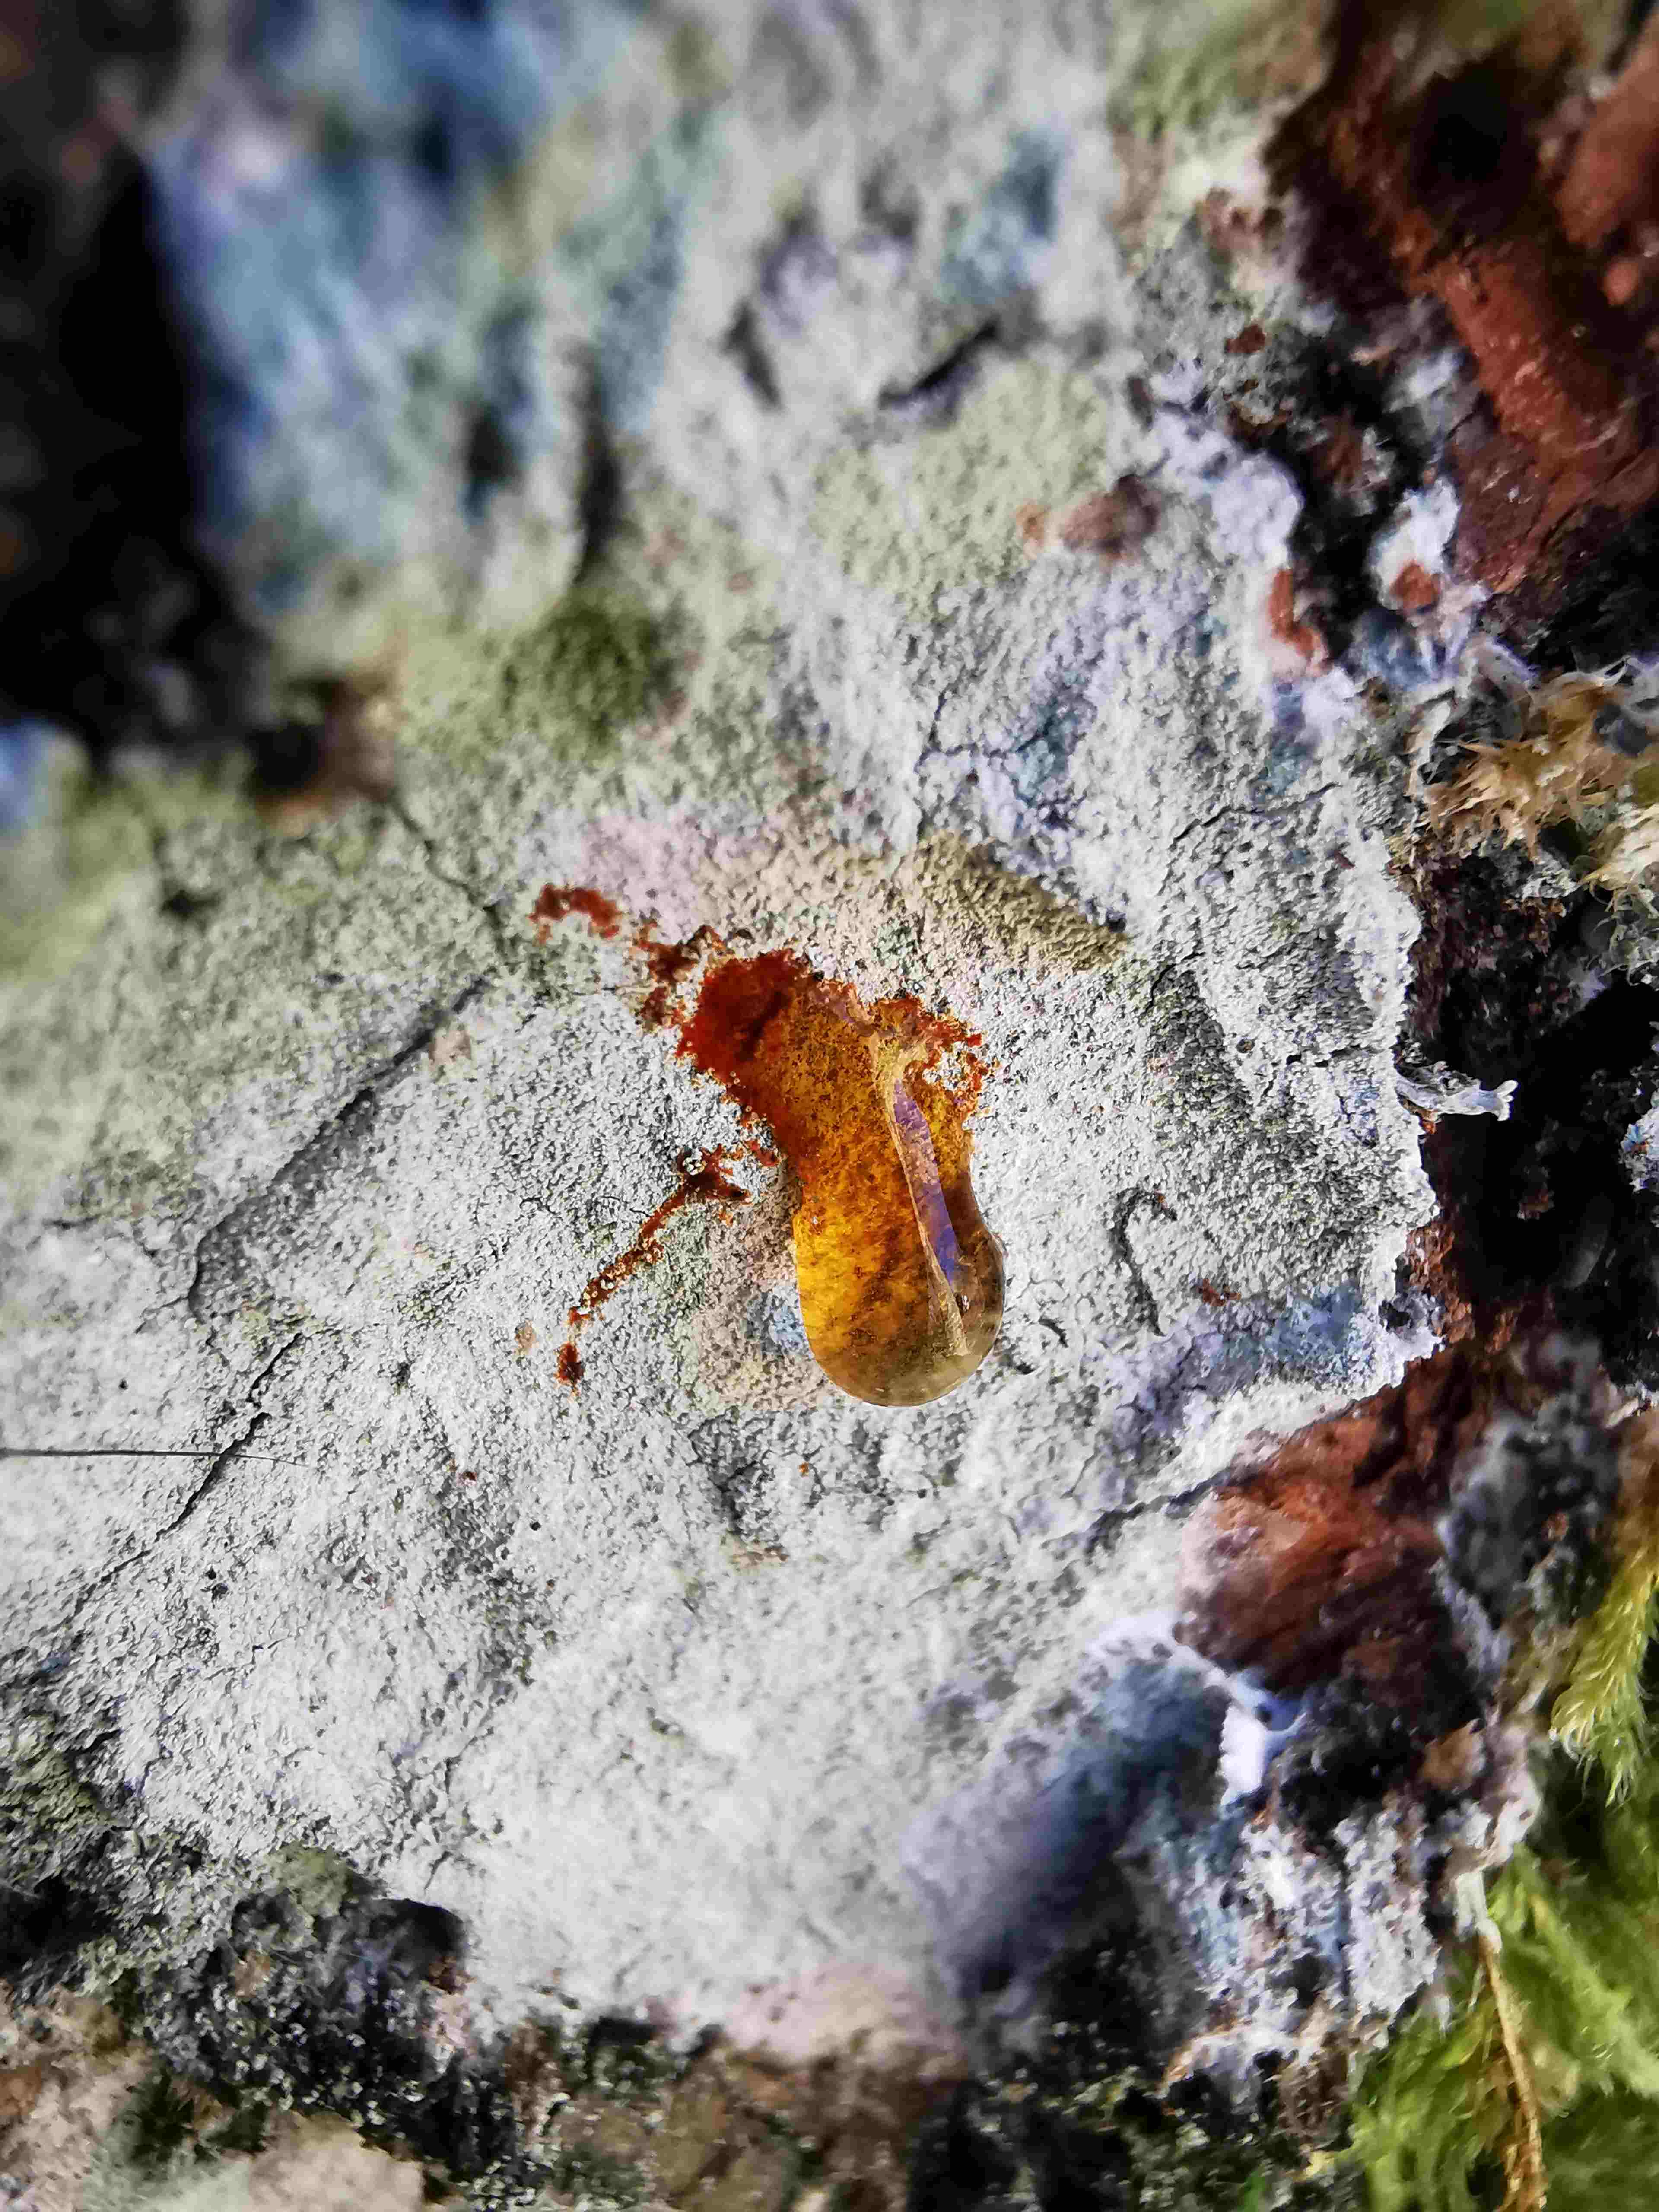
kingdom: Fungi
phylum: Ascomycota
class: Lecanoromycetes
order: Ostropales
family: Phlyctidaceae
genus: Phlyctis
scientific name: Phlyctis argena
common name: almindelig sølvlav
